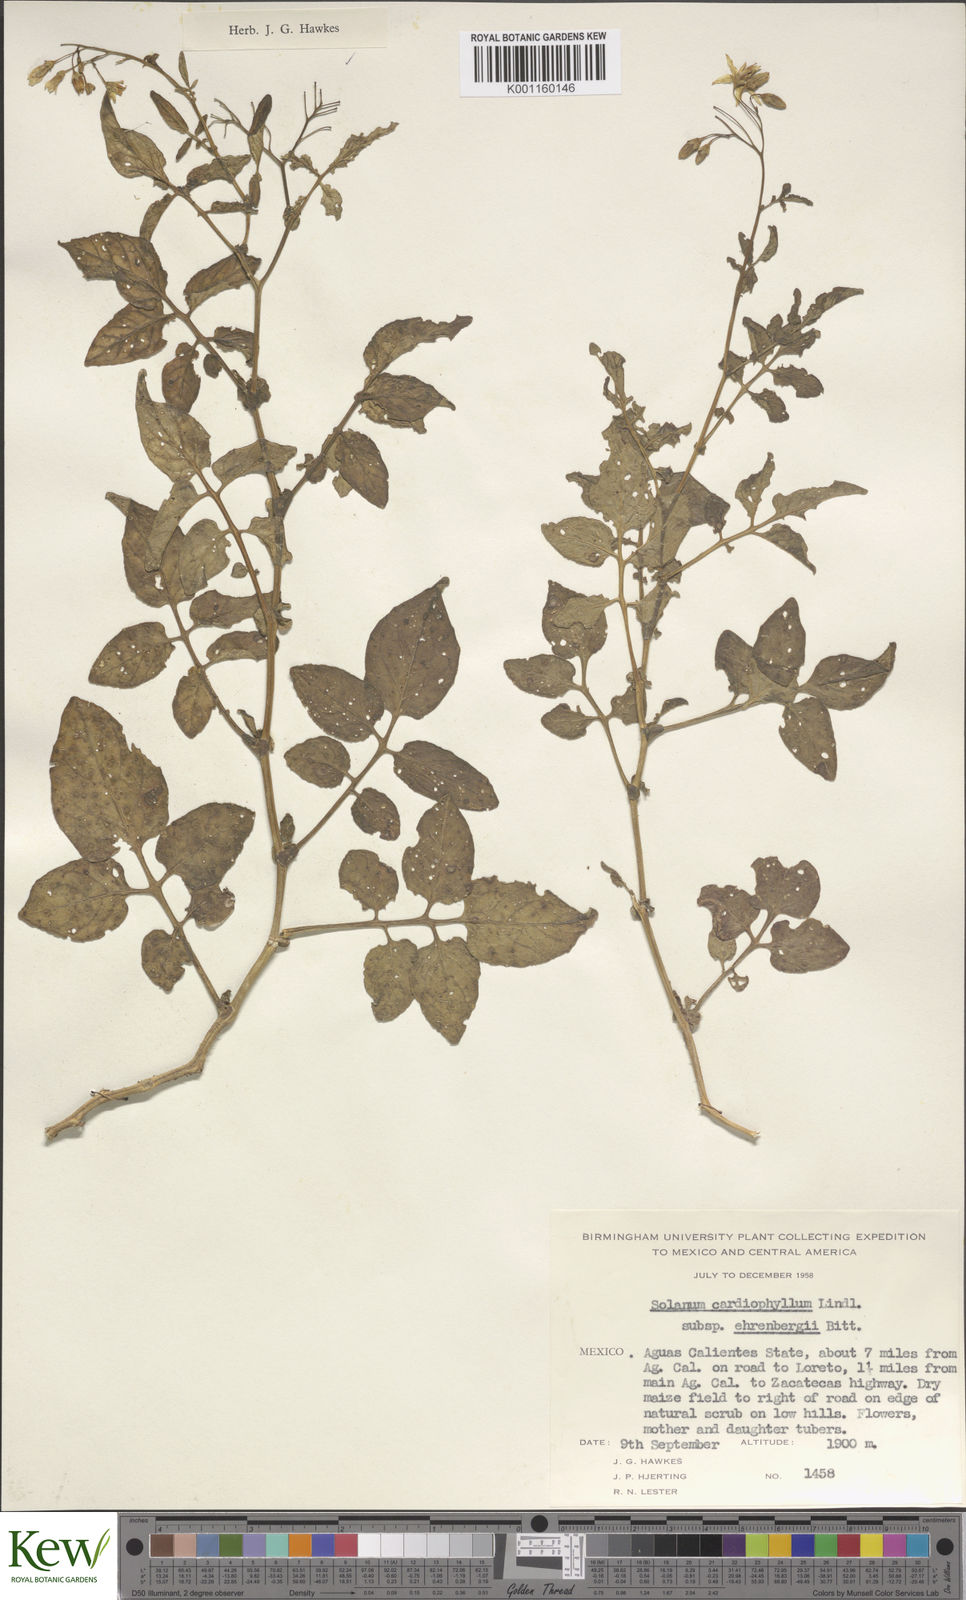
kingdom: Plantae
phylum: Tracheophyta
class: Magnoliopsida
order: Solanales
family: Solanaceae
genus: Solanum
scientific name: Solanum cardiophyllum
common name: Heartleaf horsenettle
